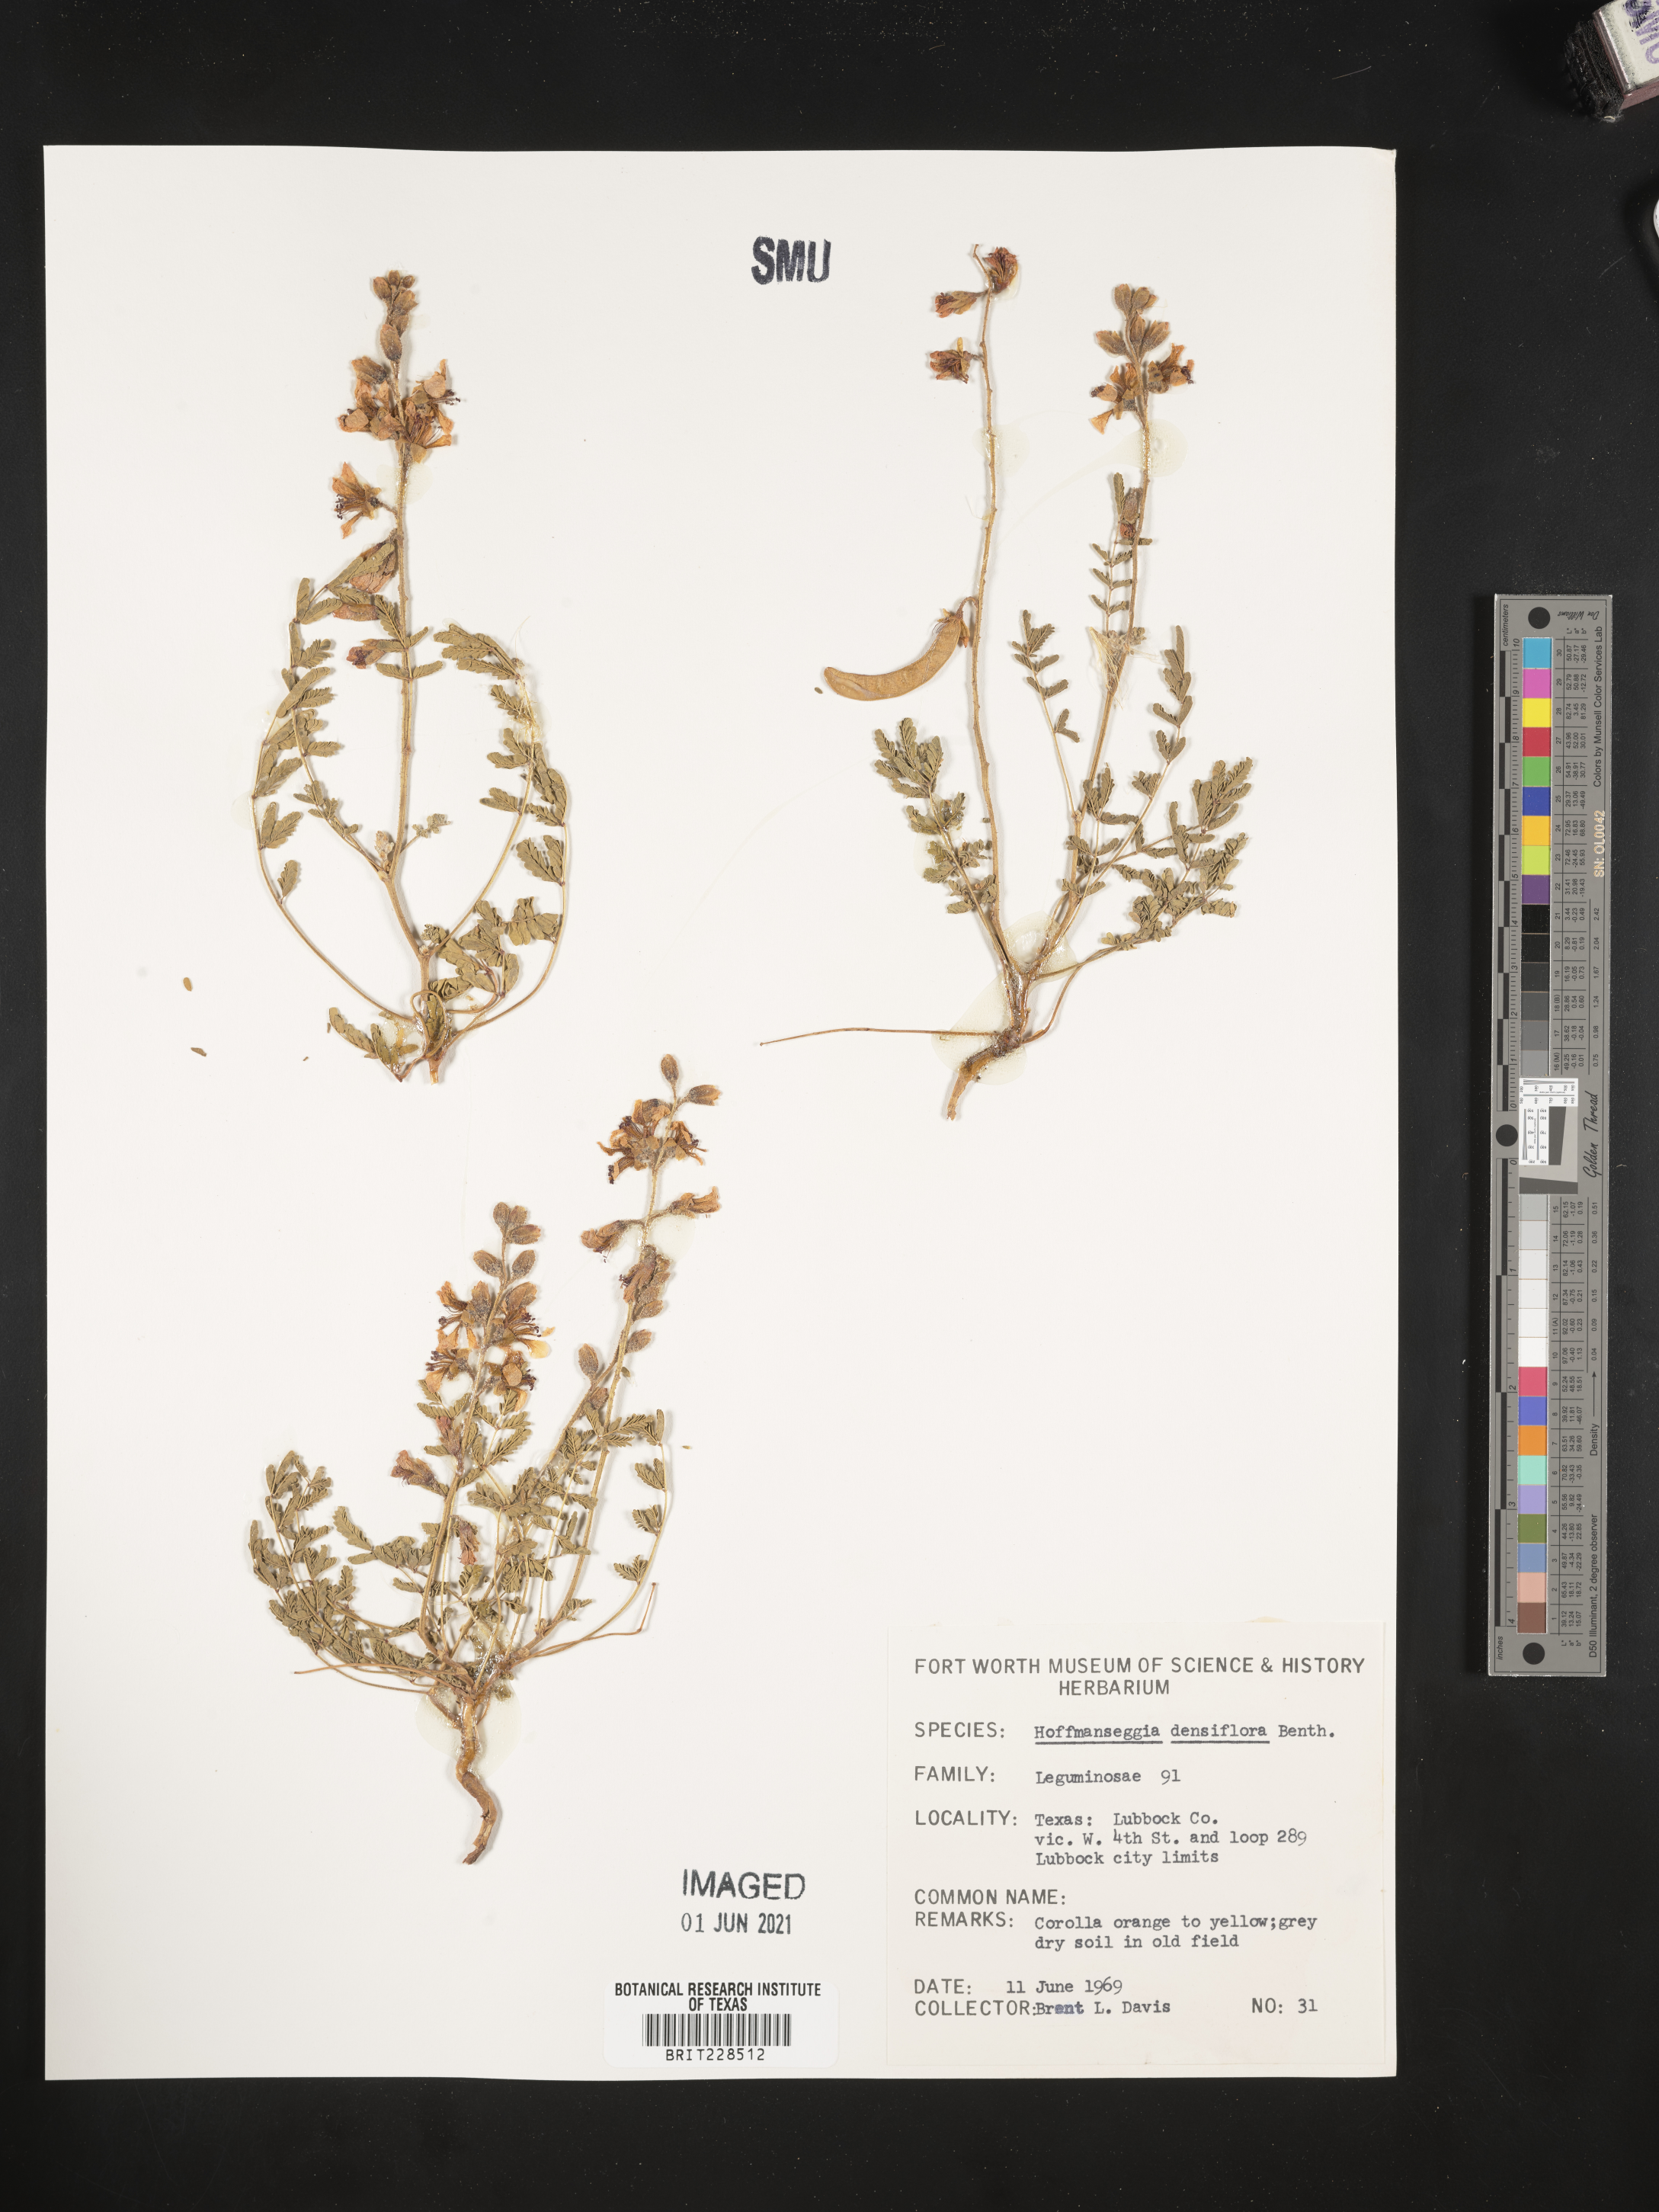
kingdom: Plantae
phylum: Tracheophyta
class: Magnoliopsida
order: Fabales
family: Fabaceae
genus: Hoffmannseggia
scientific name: Hoffmannseggia glauca
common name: Pignut
